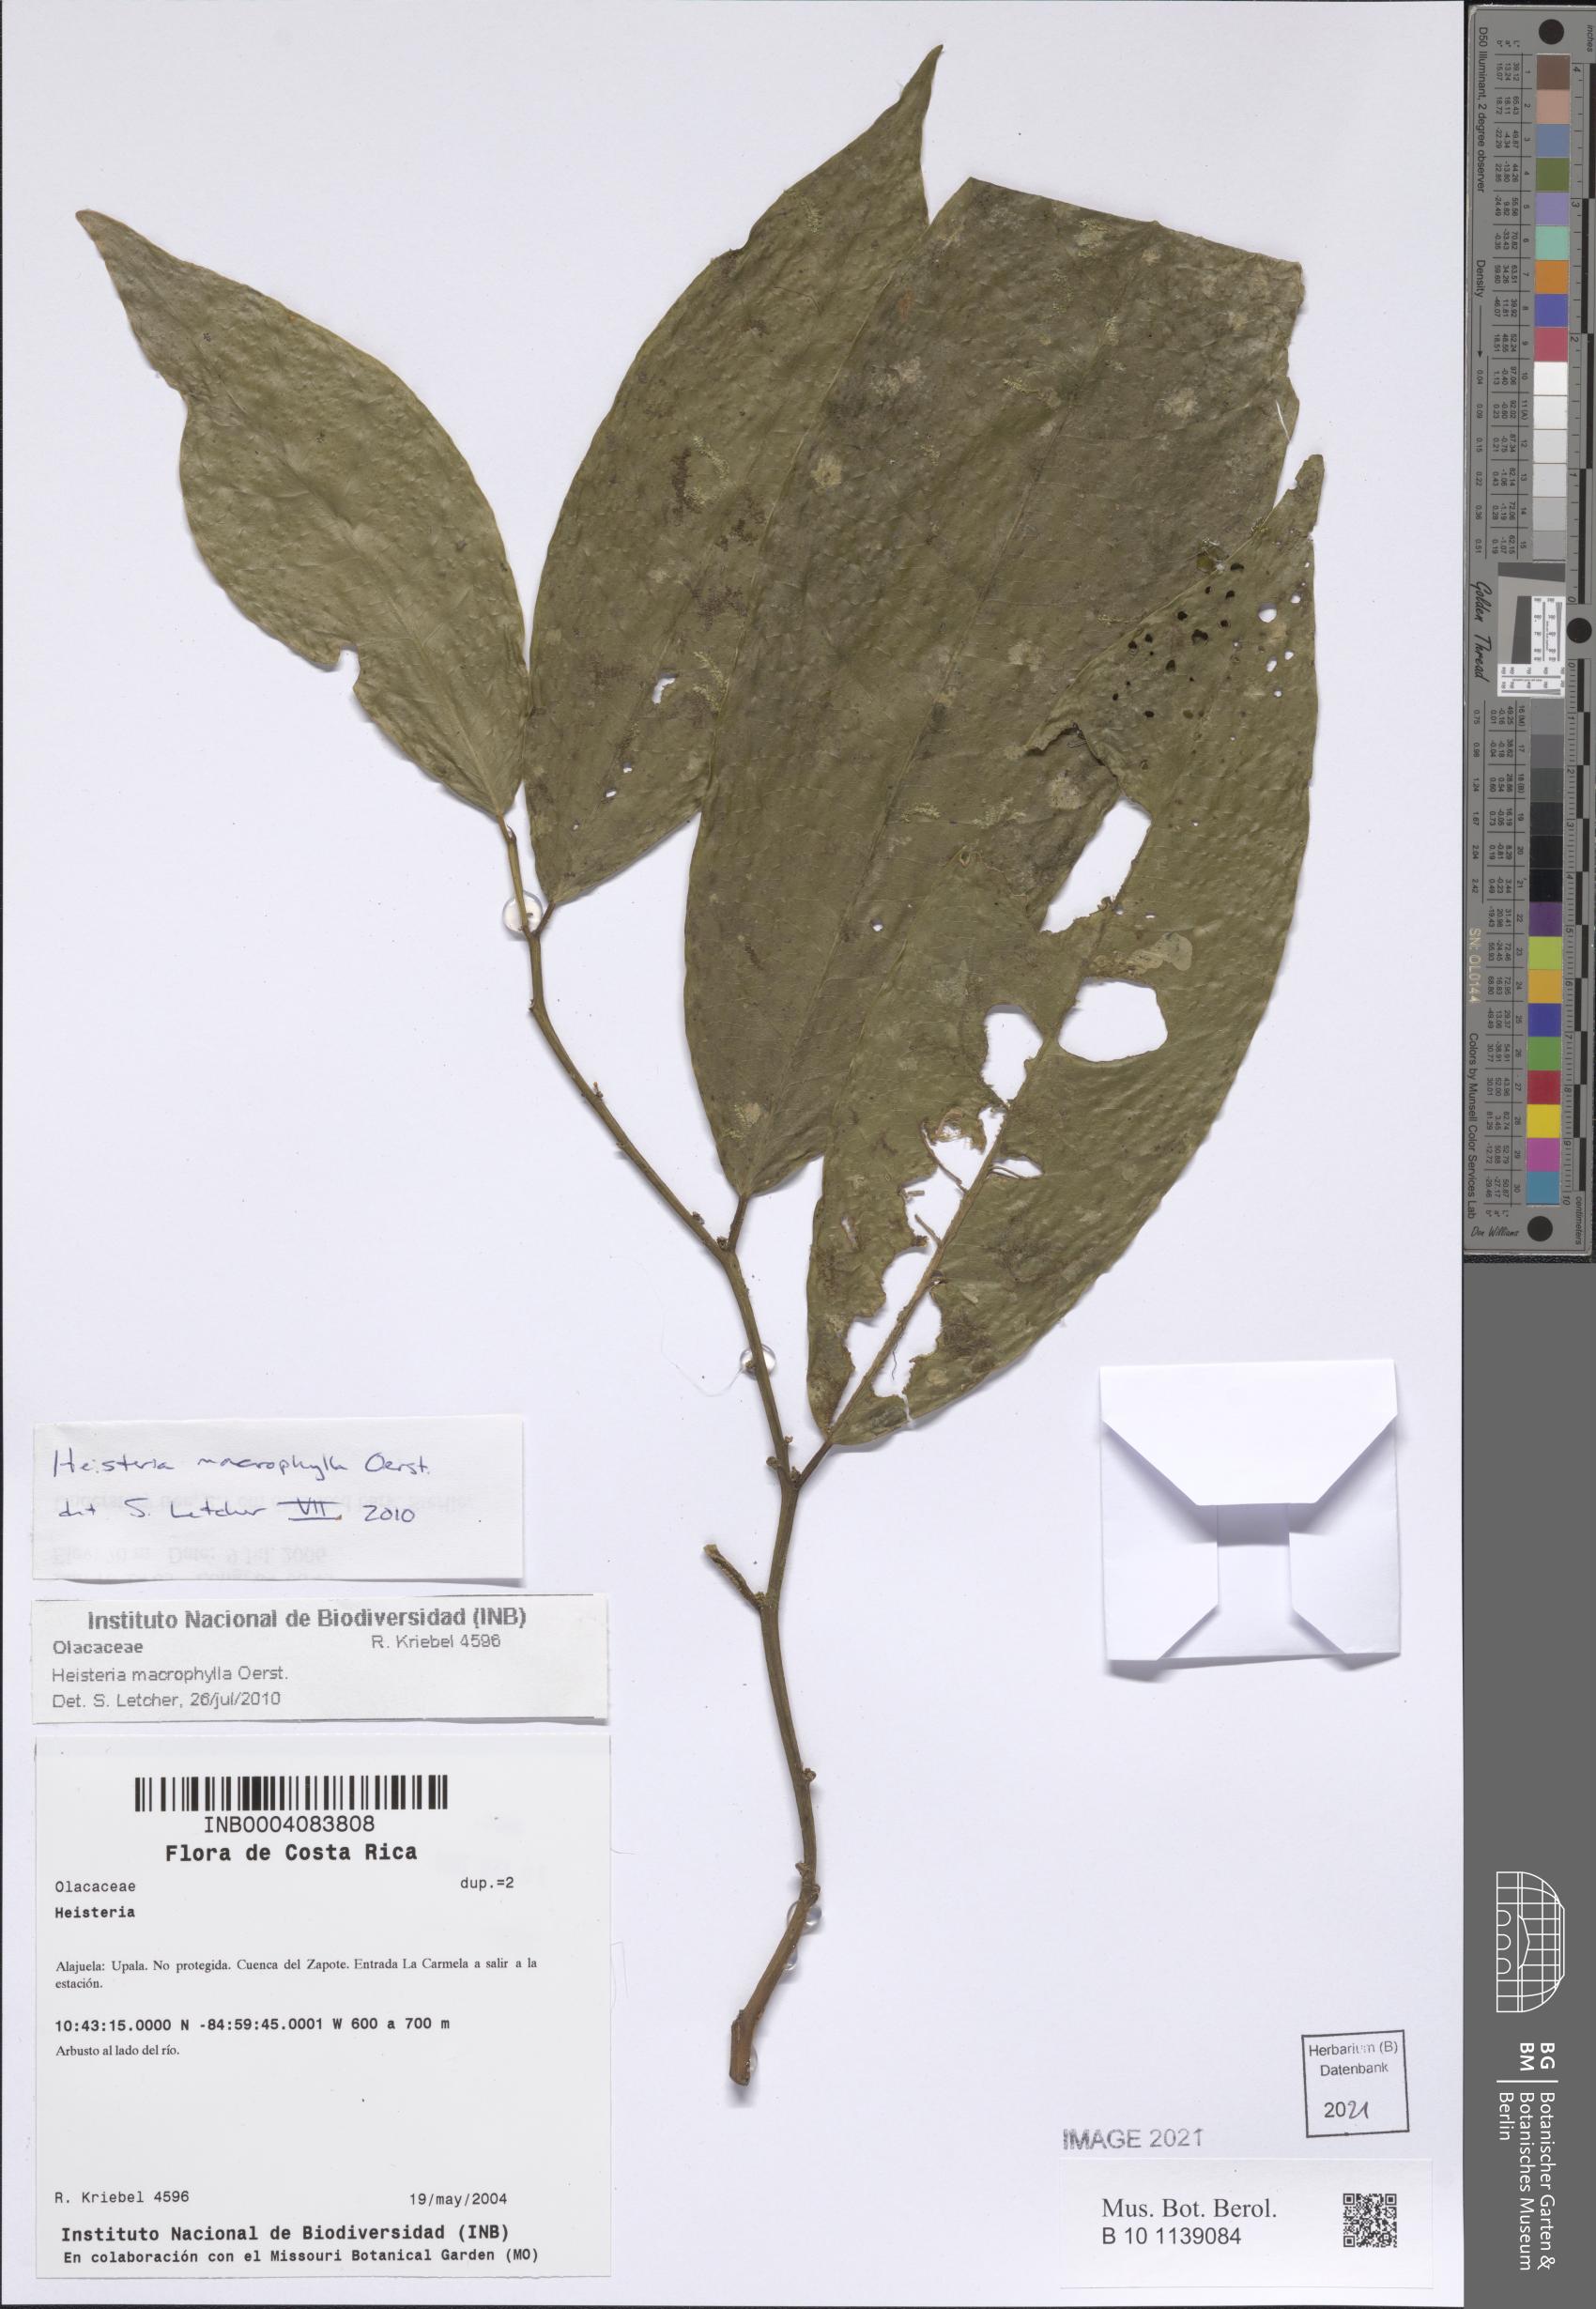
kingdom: Plantae
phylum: Tracheophyta
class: Magnoliopsida
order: Santalales
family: Erythropalaceae
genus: Heisteria
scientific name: Heisteria macrophylla
